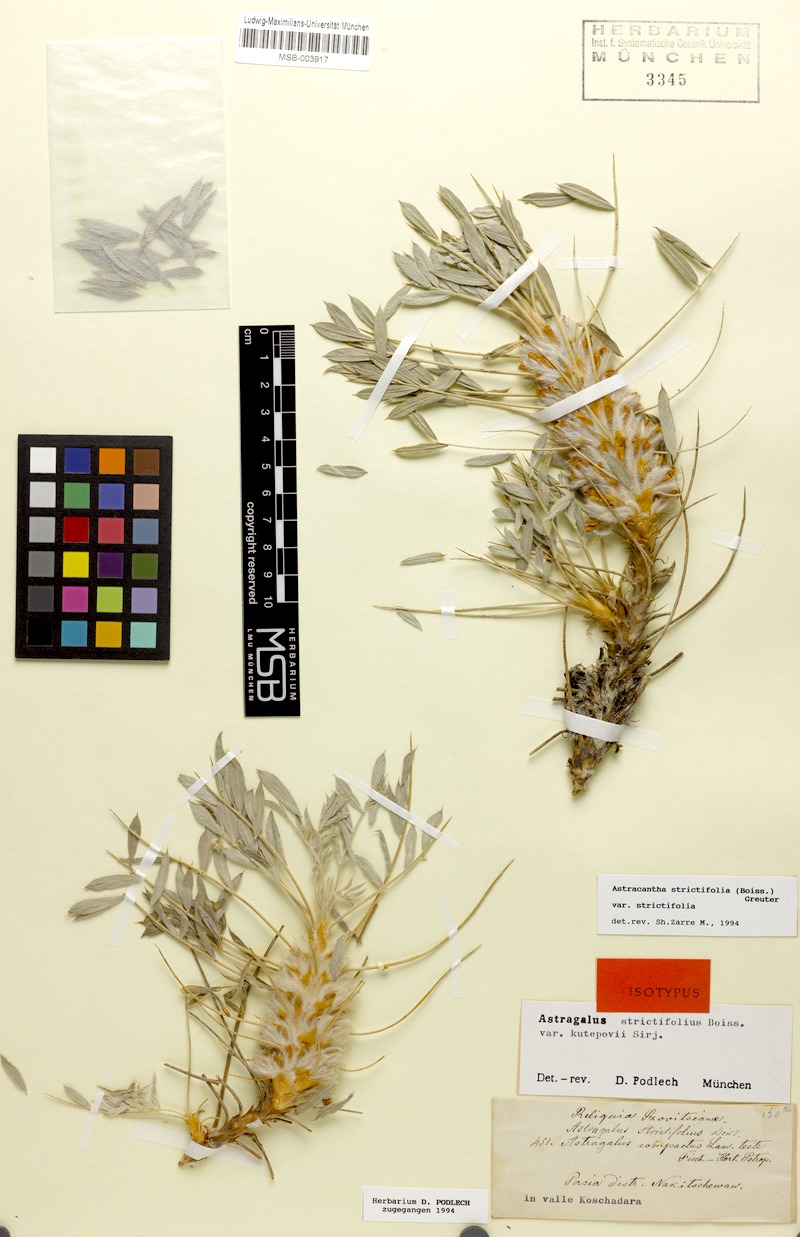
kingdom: Plantae
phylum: Tracheophyta
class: Magnoliopsida
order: Fabales
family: Fabaceae
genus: Astragalus
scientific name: Astragalus compactus
